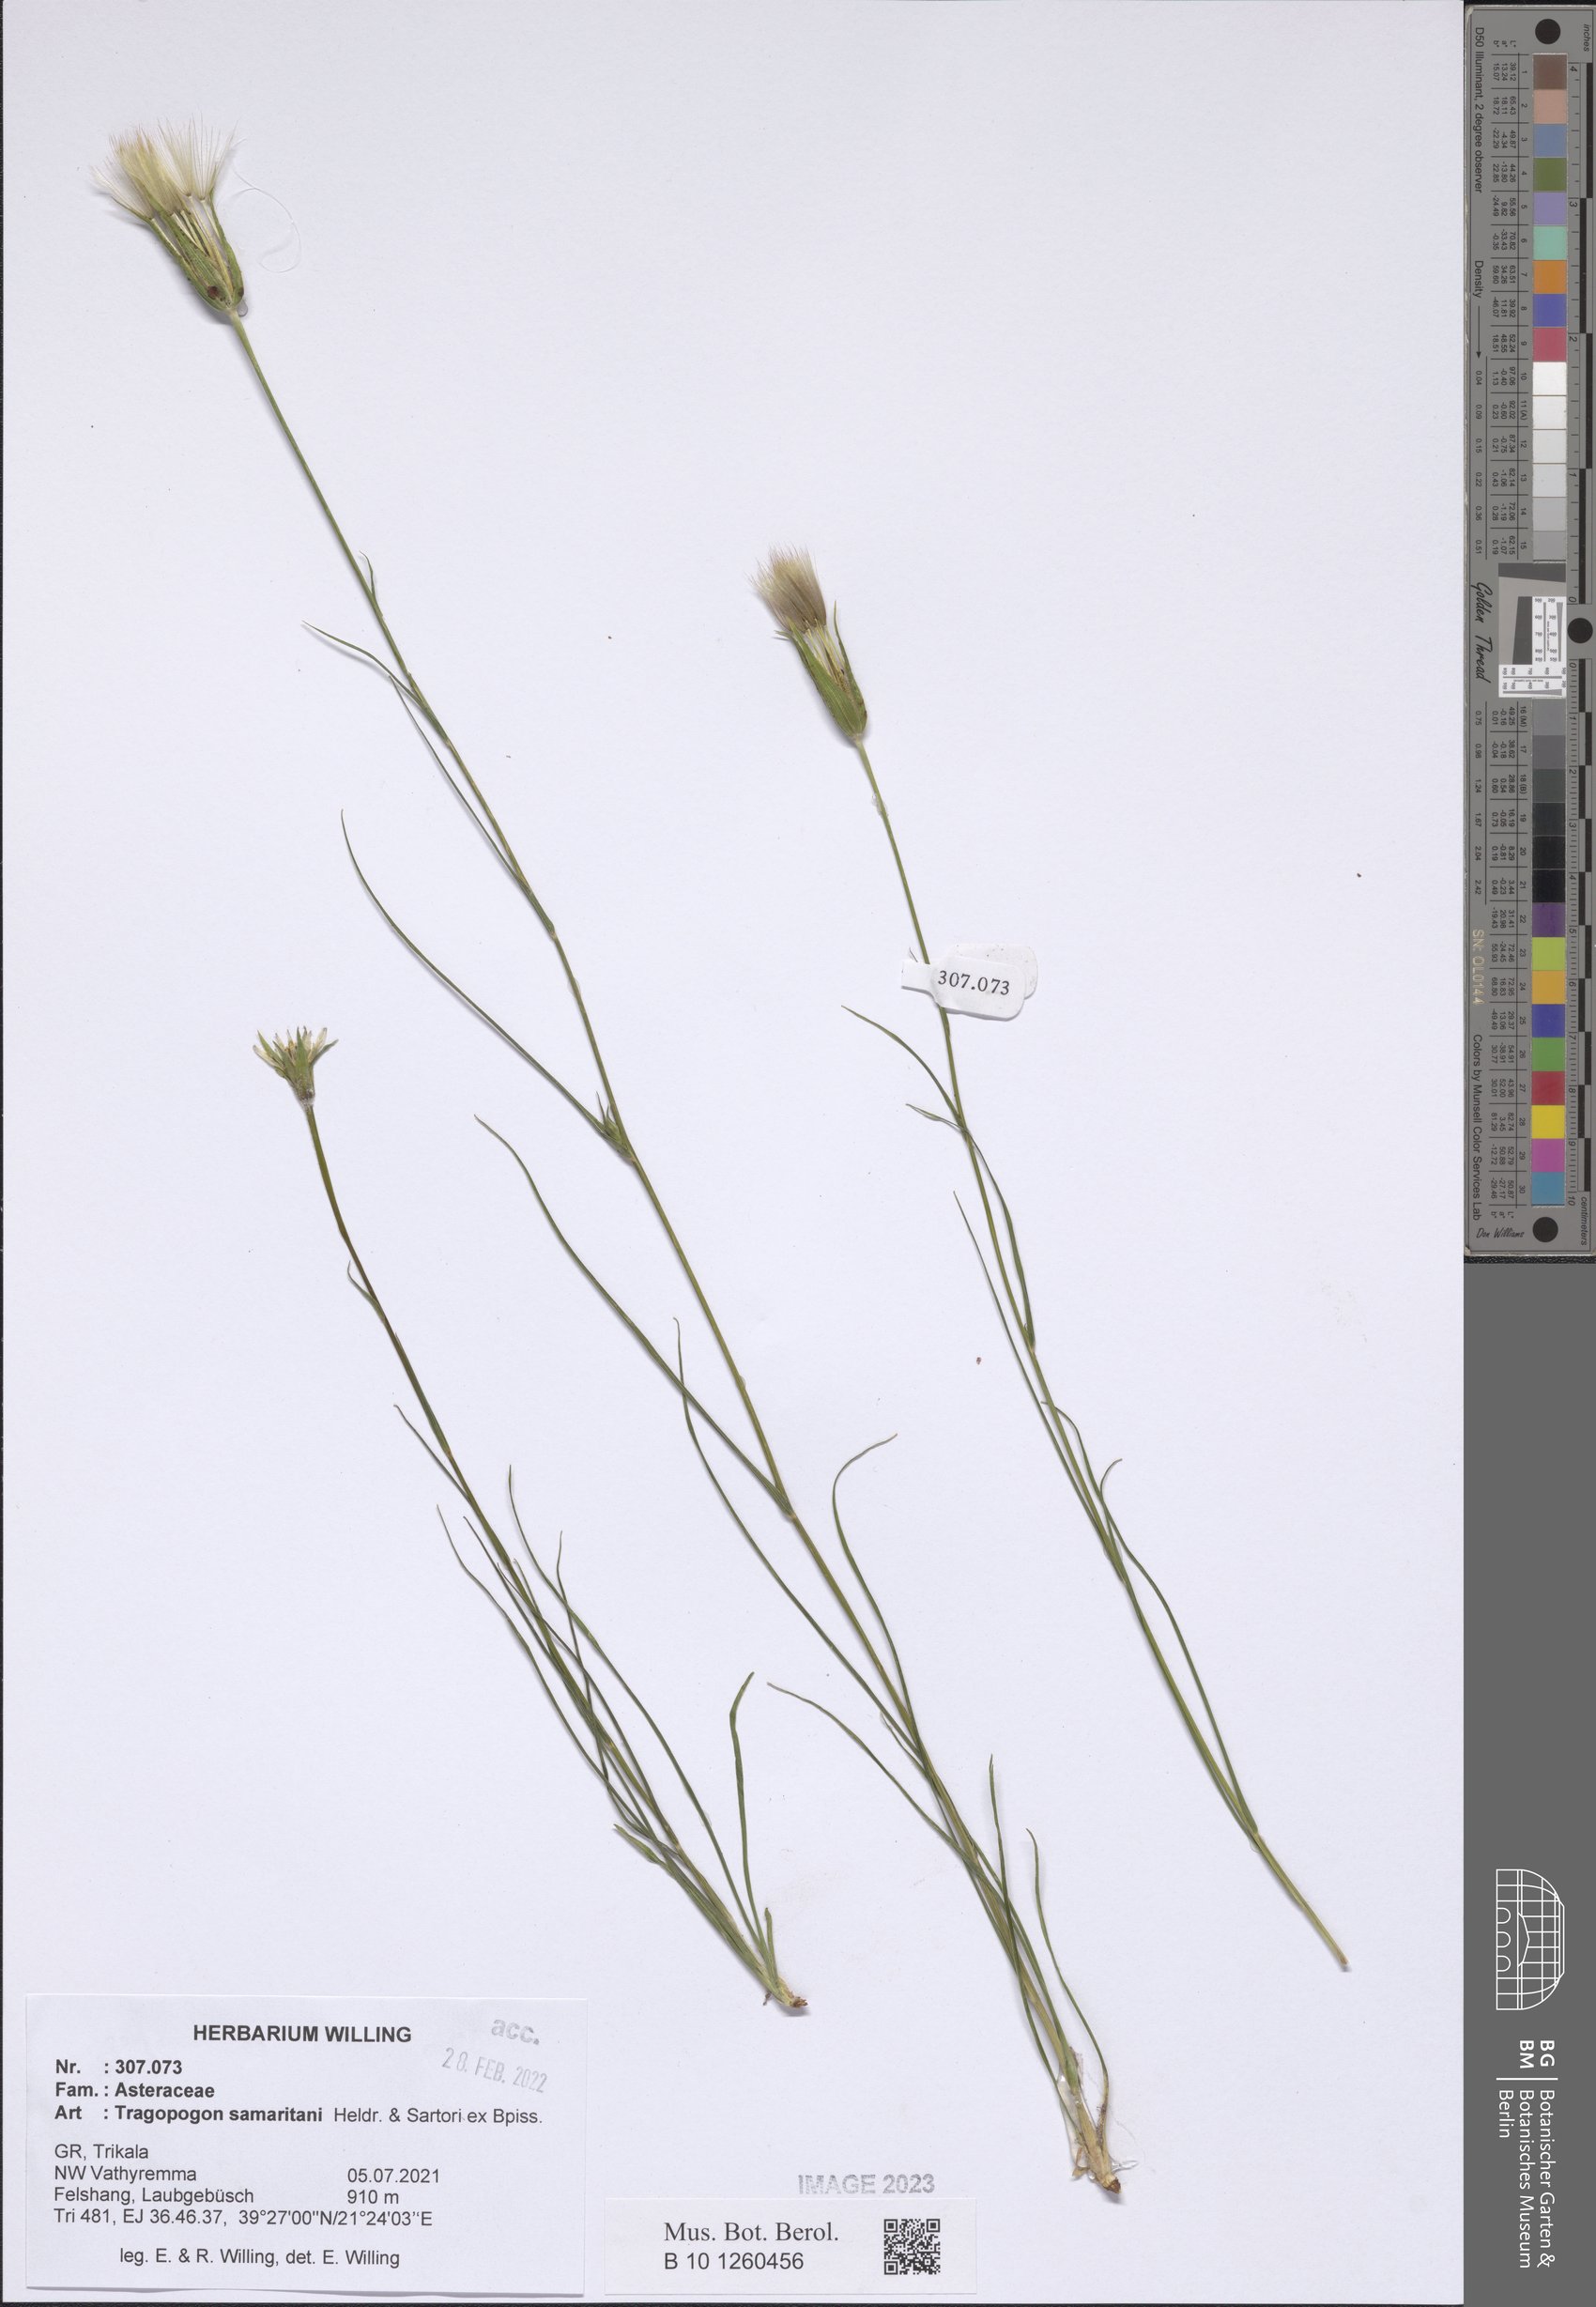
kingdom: Plantae
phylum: Tracheophyta
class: Magnoliopsida
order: Asterales
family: Asteraceae
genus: Tragopogon
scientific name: Tragopogon samaritani
